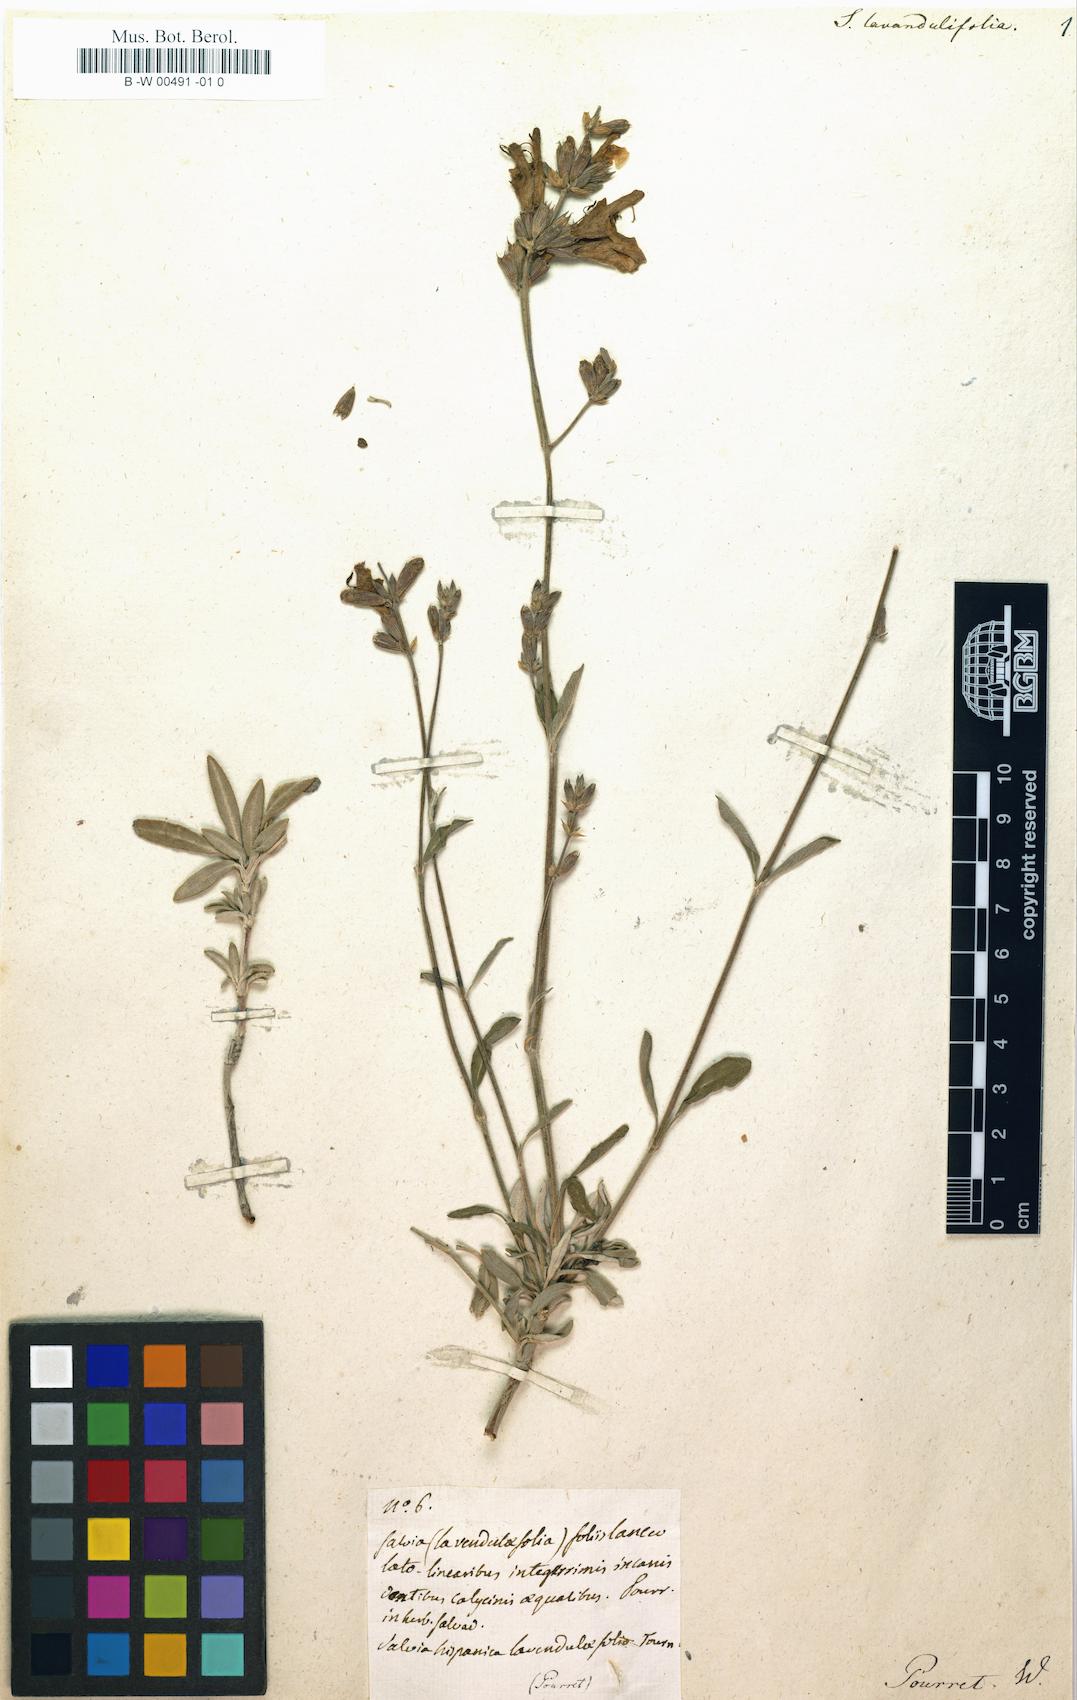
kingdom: Plantae
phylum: Tracheophyta
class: Magnoliopsida
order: Lamiales
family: Lamiaceae
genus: Salvia
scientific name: Salvia lavandulifolia
